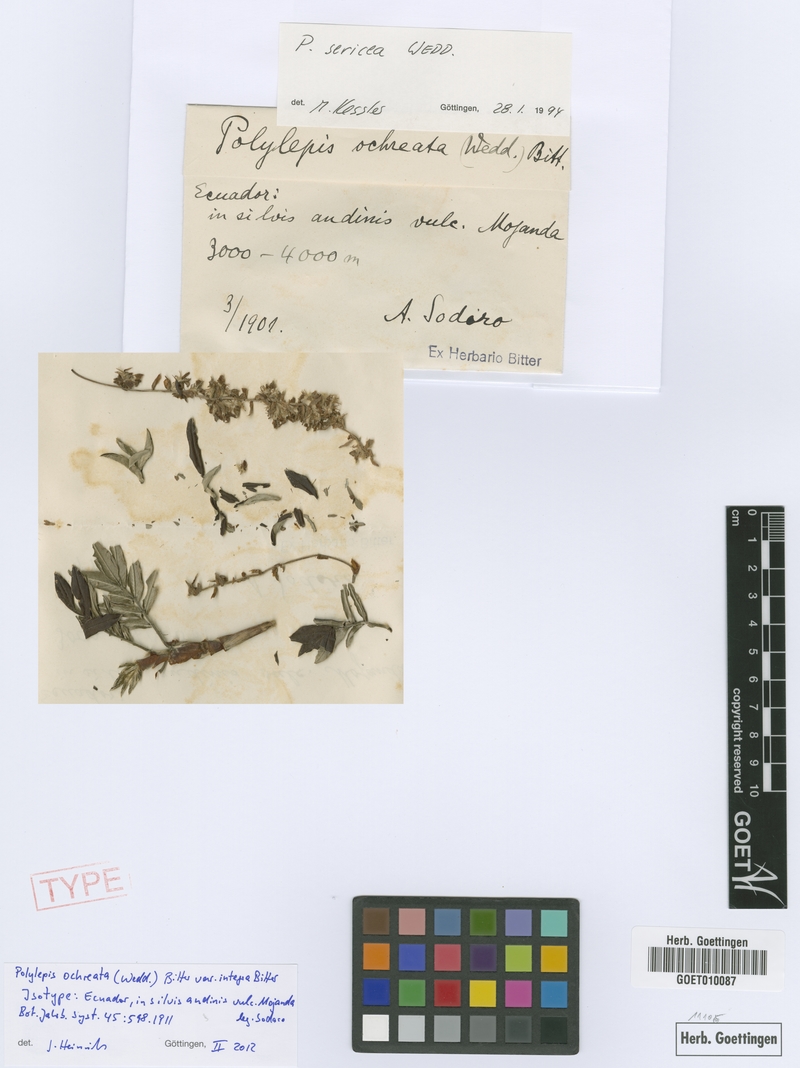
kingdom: Plantae
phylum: Tracheophyta
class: Magnoliopsida
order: Rosales
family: Rosaceae
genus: Polylepis
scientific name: Polylepis sericea
